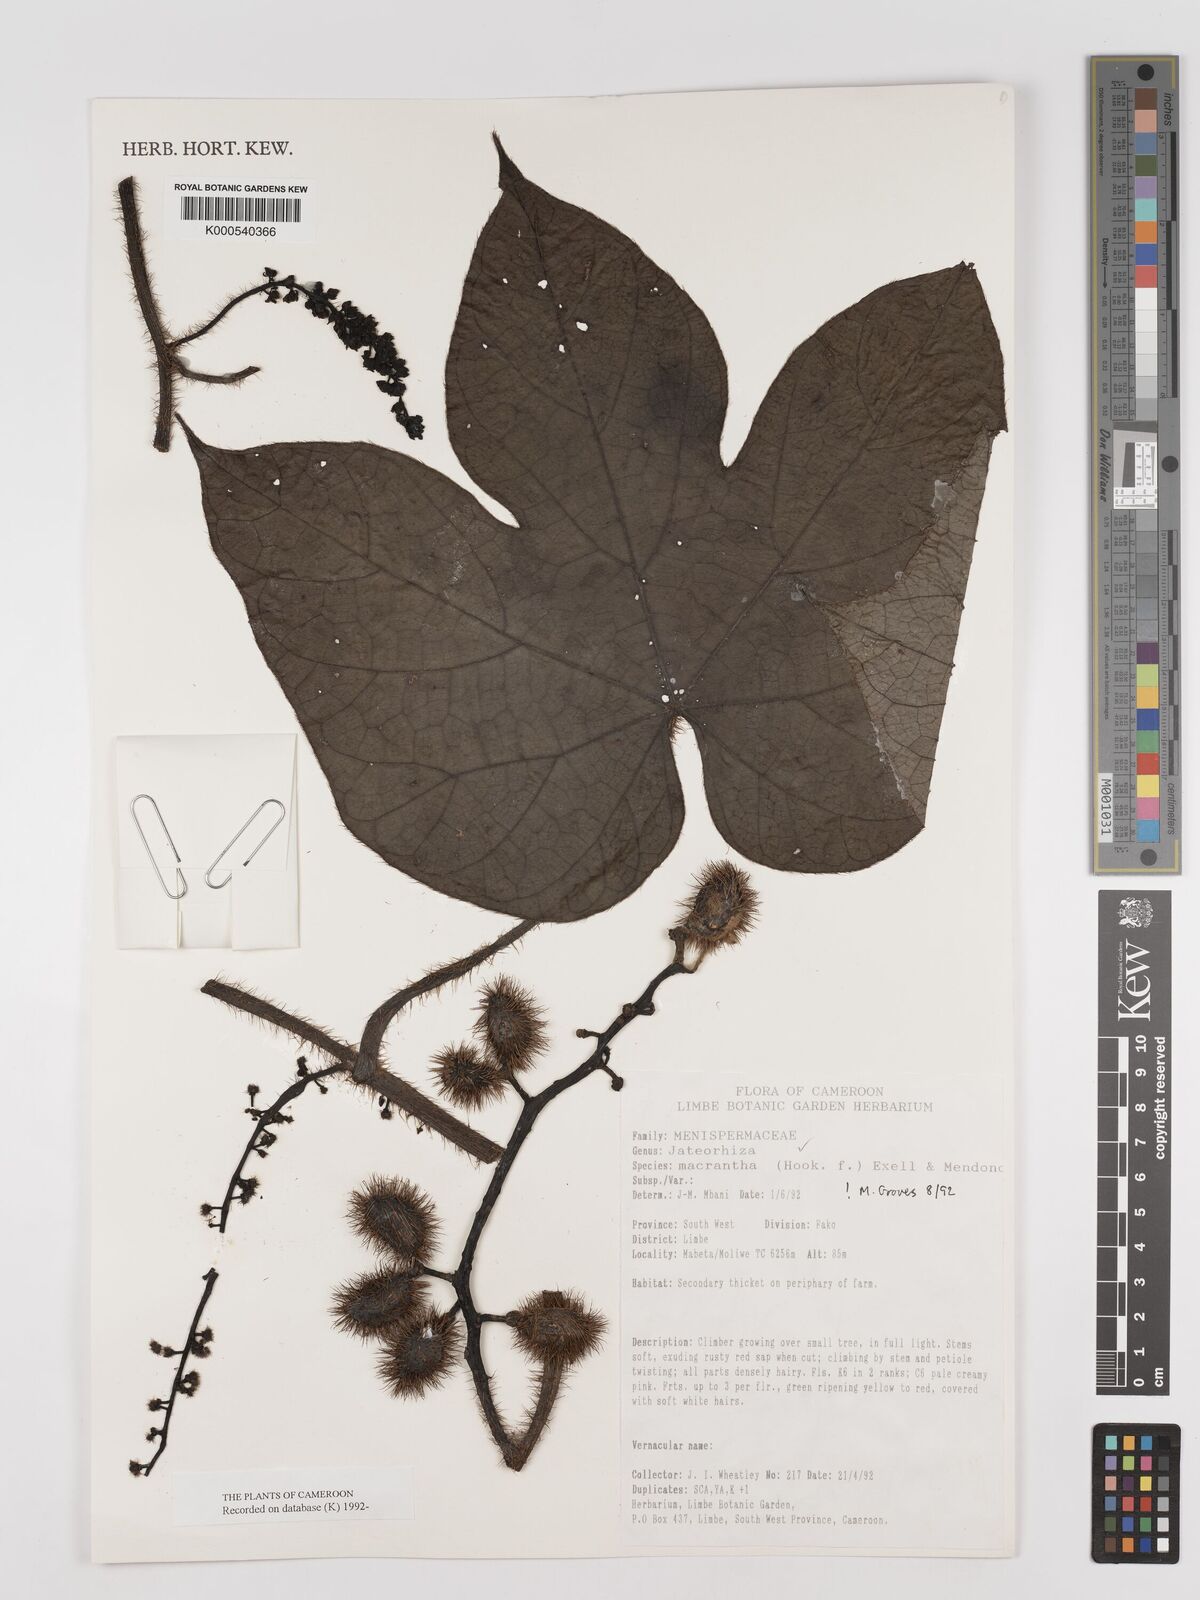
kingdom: Plantae
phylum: Tracheophyta
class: Magnoliopsida
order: Ranunculales
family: Menispermaceae
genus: Jateorhiza
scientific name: Jateorhiza
